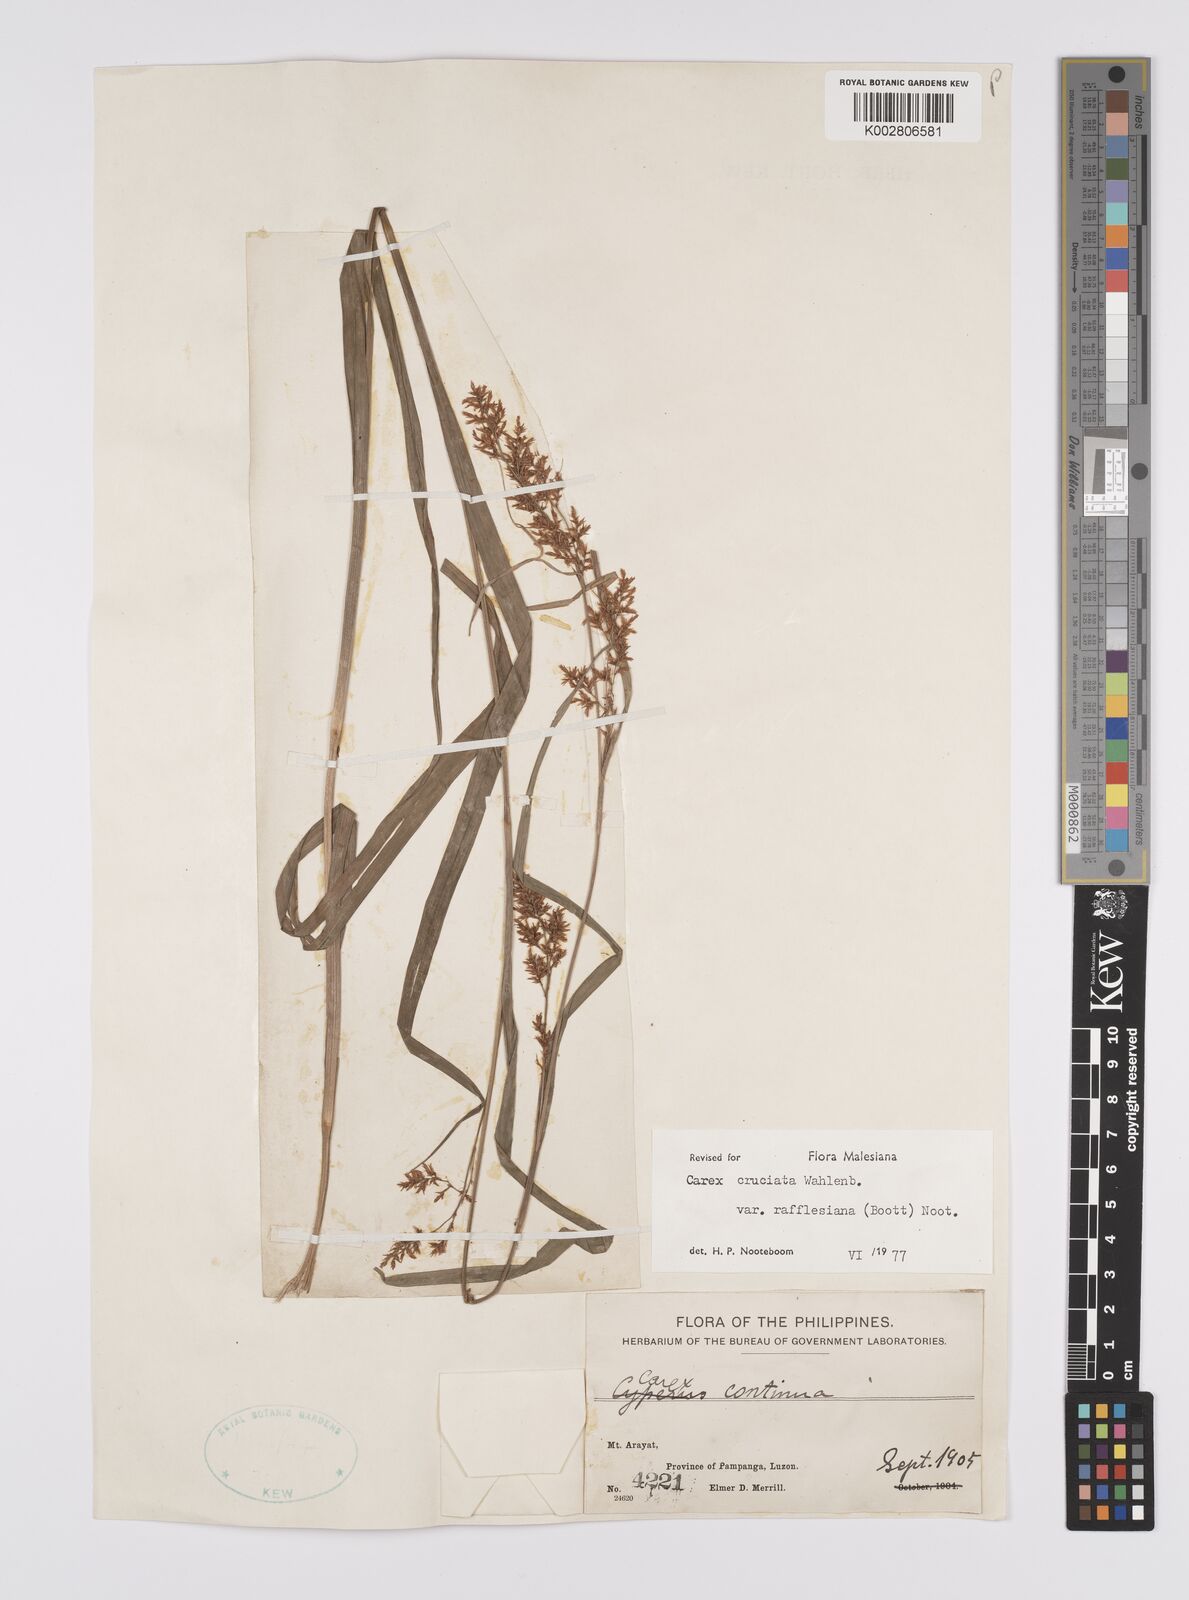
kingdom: Plantae
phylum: Tracheophyta
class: Liliopsida
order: Poales
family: Cyperaceae
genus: Carex
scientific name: Carex rafflesiana
